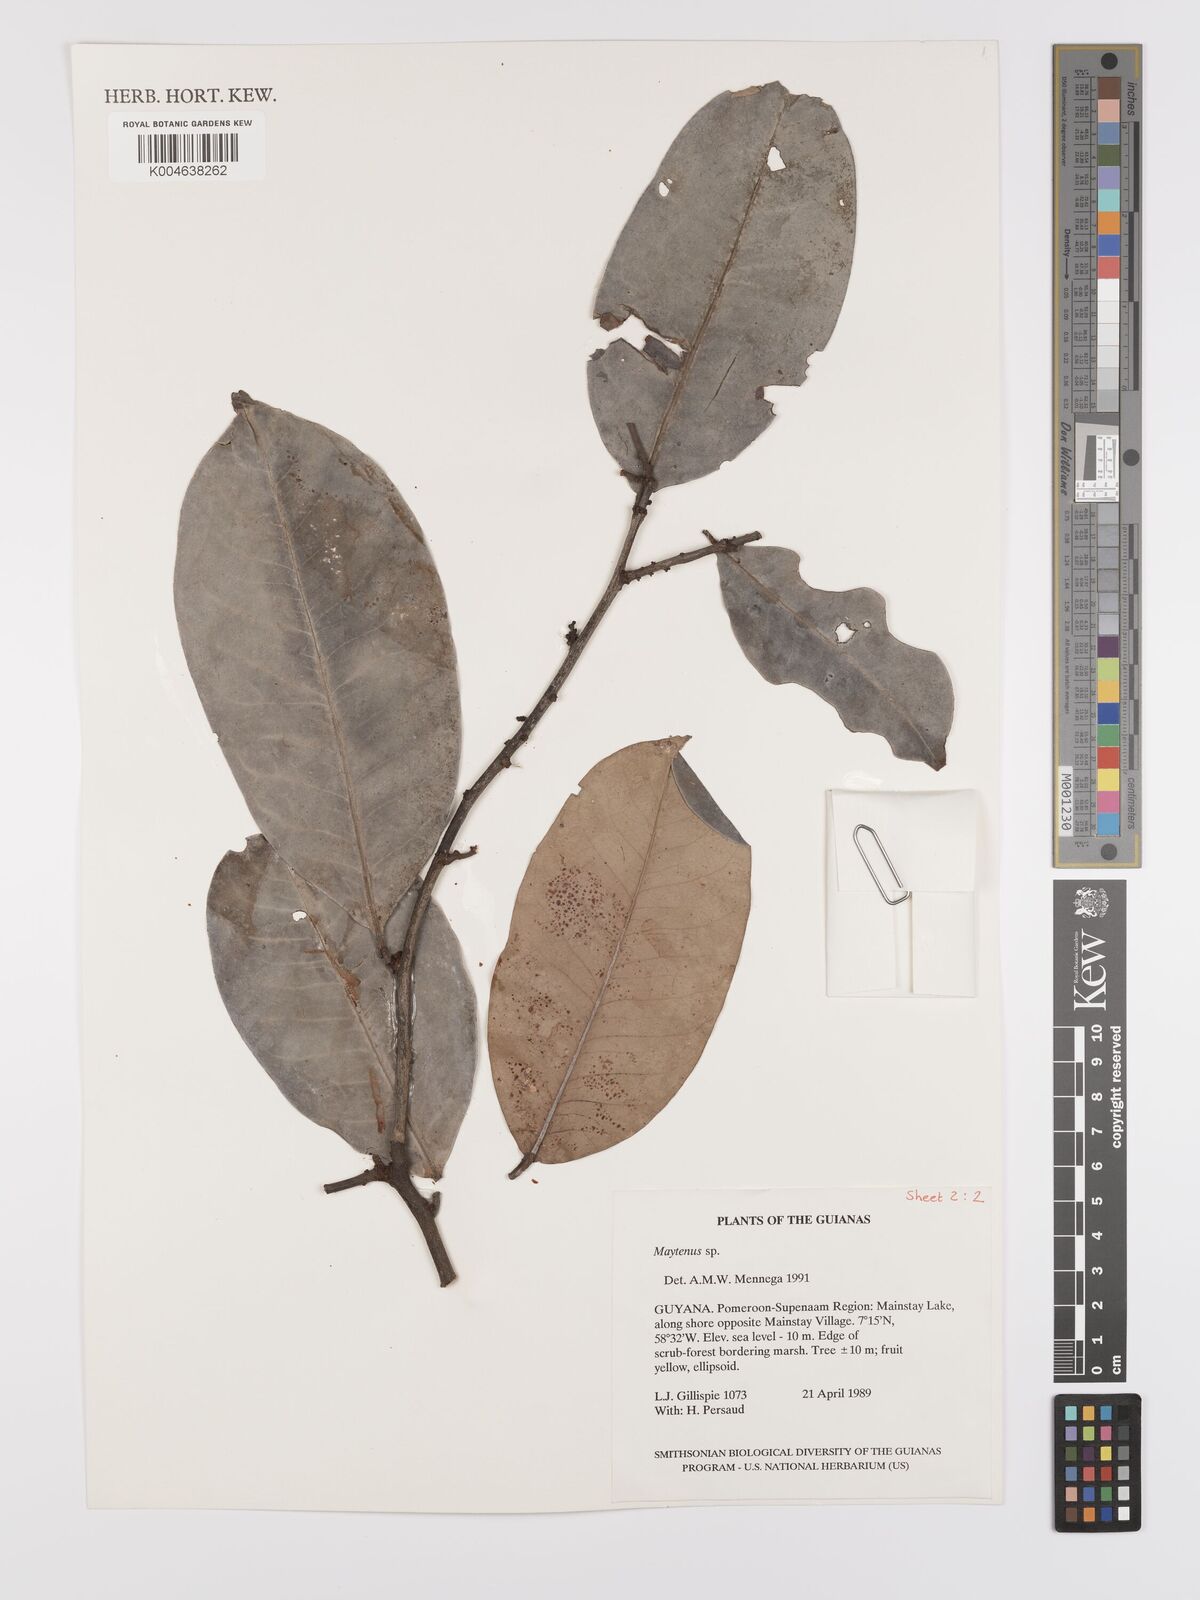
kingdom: Plantae
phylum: Tracheophyta
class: Magnoliopsida
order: Celastrales
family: Celastraceae
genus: Maytenus
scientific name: Maytenus
